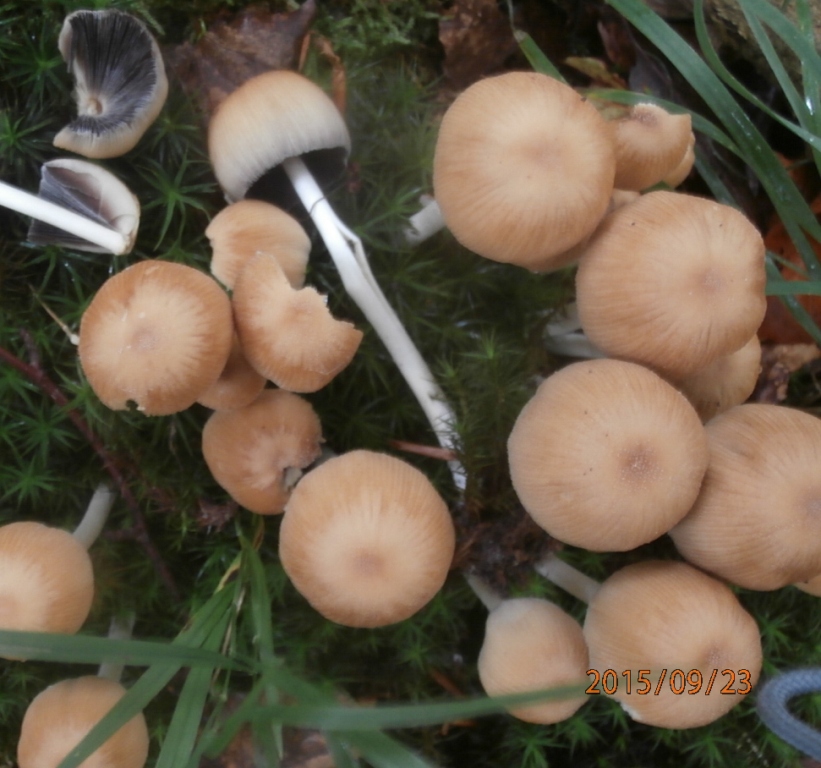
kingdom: Fungi
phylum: Basidiomycota
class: Agaricomycetes
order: Agaricales
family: Psathyrellaceae
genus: Coprinellus
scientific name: Coprinellus micaceus
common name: glimmer-blækhat
